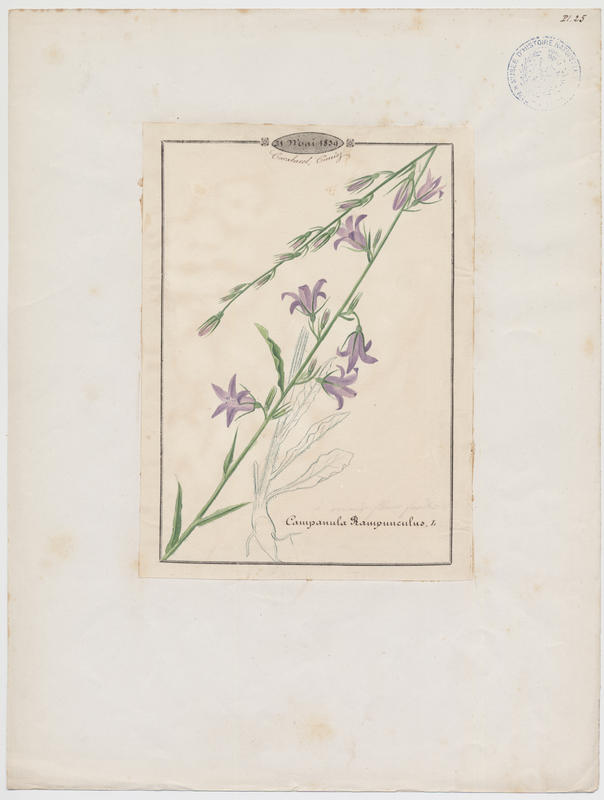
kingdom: Plantae
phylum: Tracheophyta
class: Magnoliopsida
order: Asterales
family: Campanulaceae
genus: Campanula
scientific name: Campanula rapunculus
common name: Rampion bellflower
